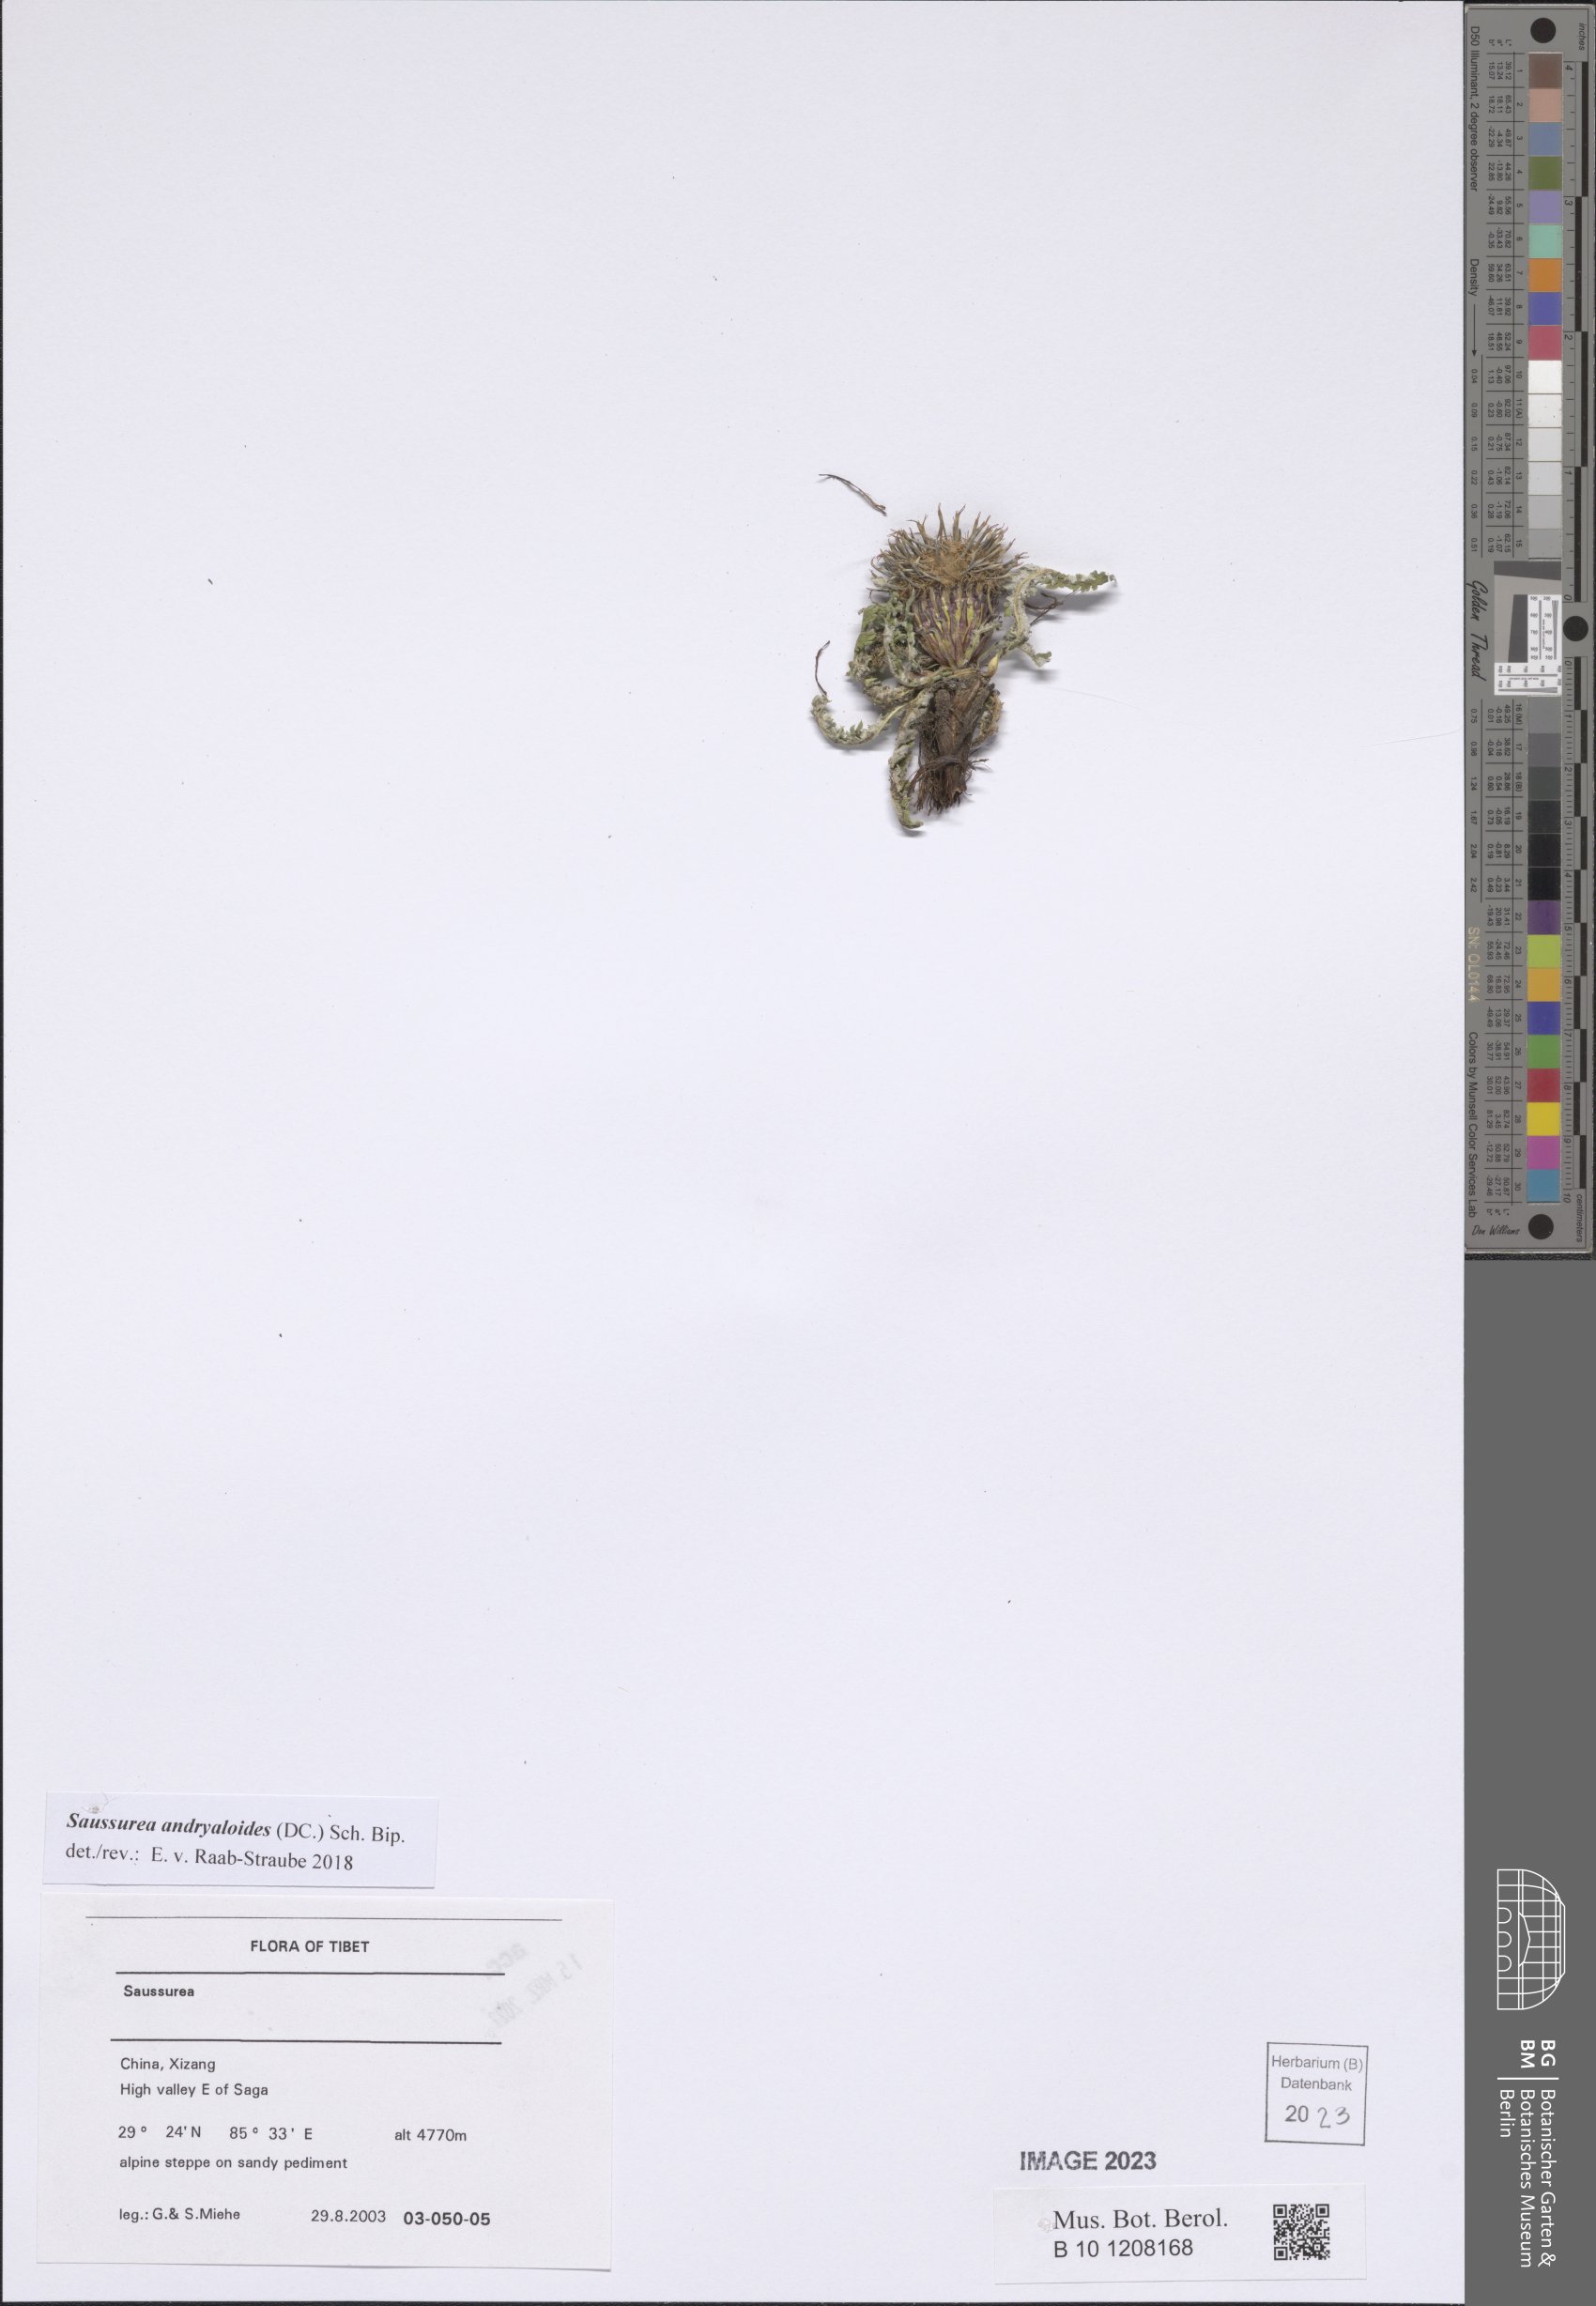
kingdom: Plantae
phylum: Tracheophyta
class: Magnoliopsida
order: Asterales
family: Asteraceae
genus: Saussurea
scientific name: Saussurea andryaloides
